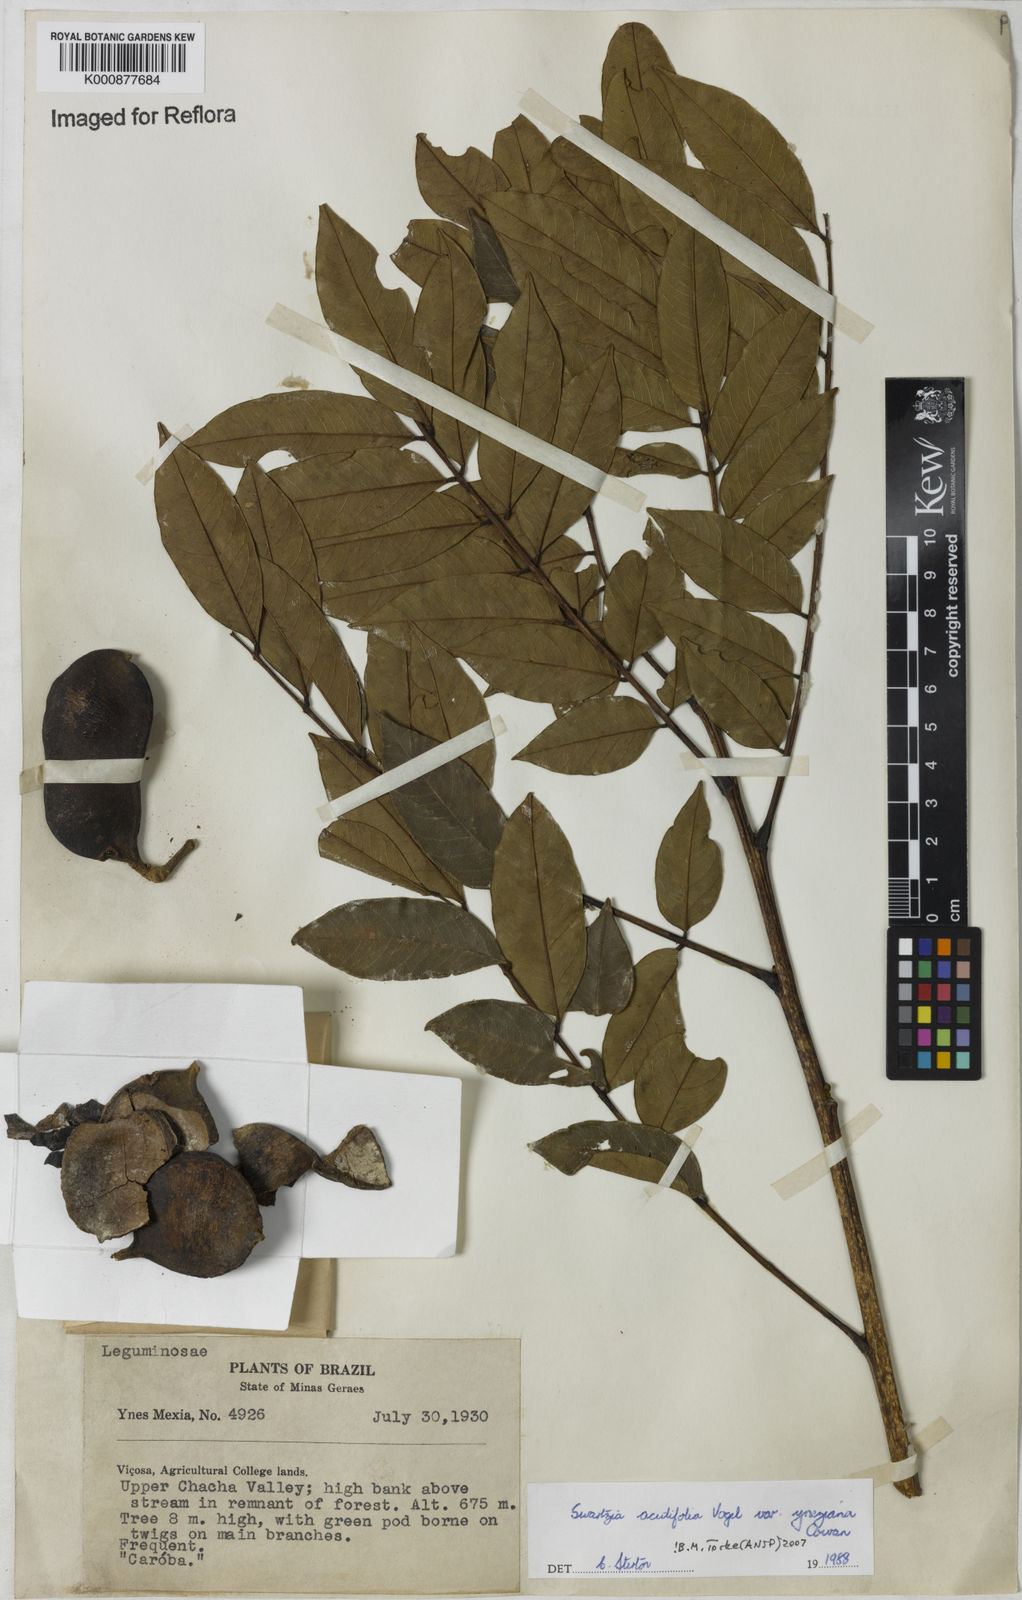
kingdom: Plantae
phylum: Tracheophyta
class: Magnoliopsida
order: Fabales
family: Fabaceae
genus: Swartzia
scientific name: Swartzia oblata
